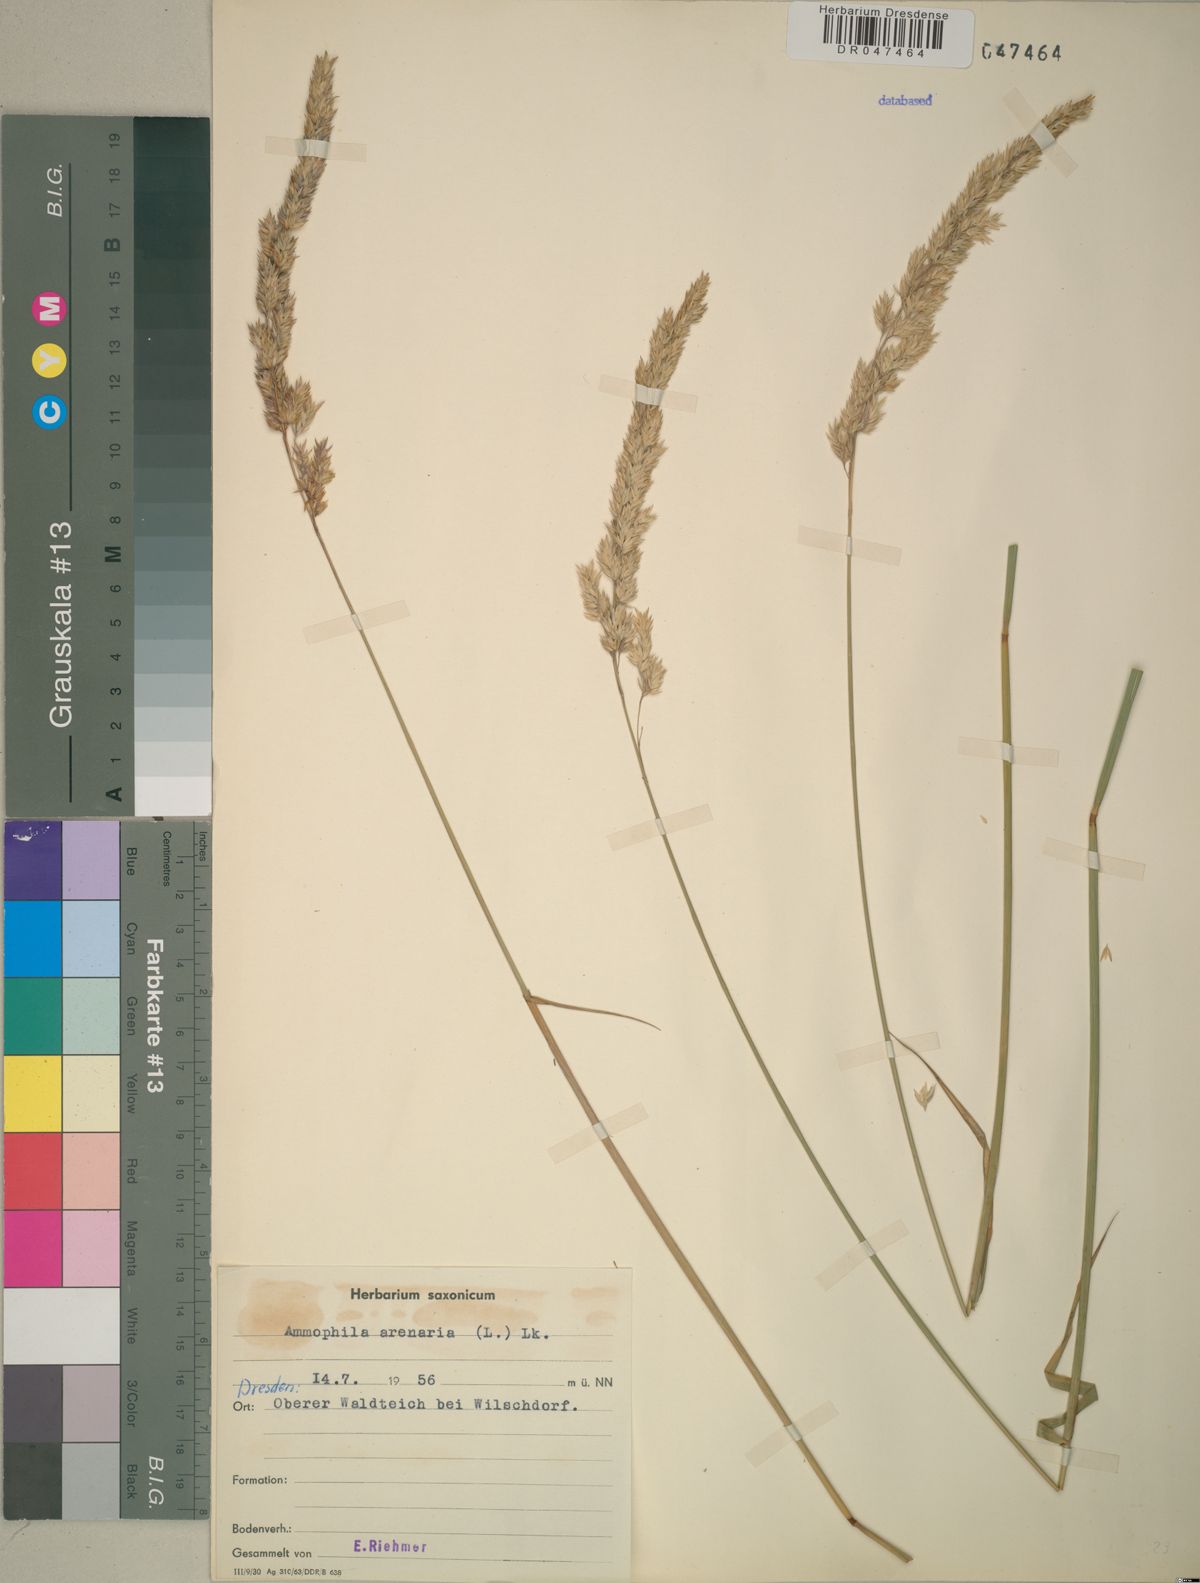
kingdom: Plantae
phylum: Tracheophyta
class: Liliopsida
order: Poales
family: Poaceae
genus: Calamagrostis
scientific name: Calamagrostis arenaria
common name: European beachgrass
